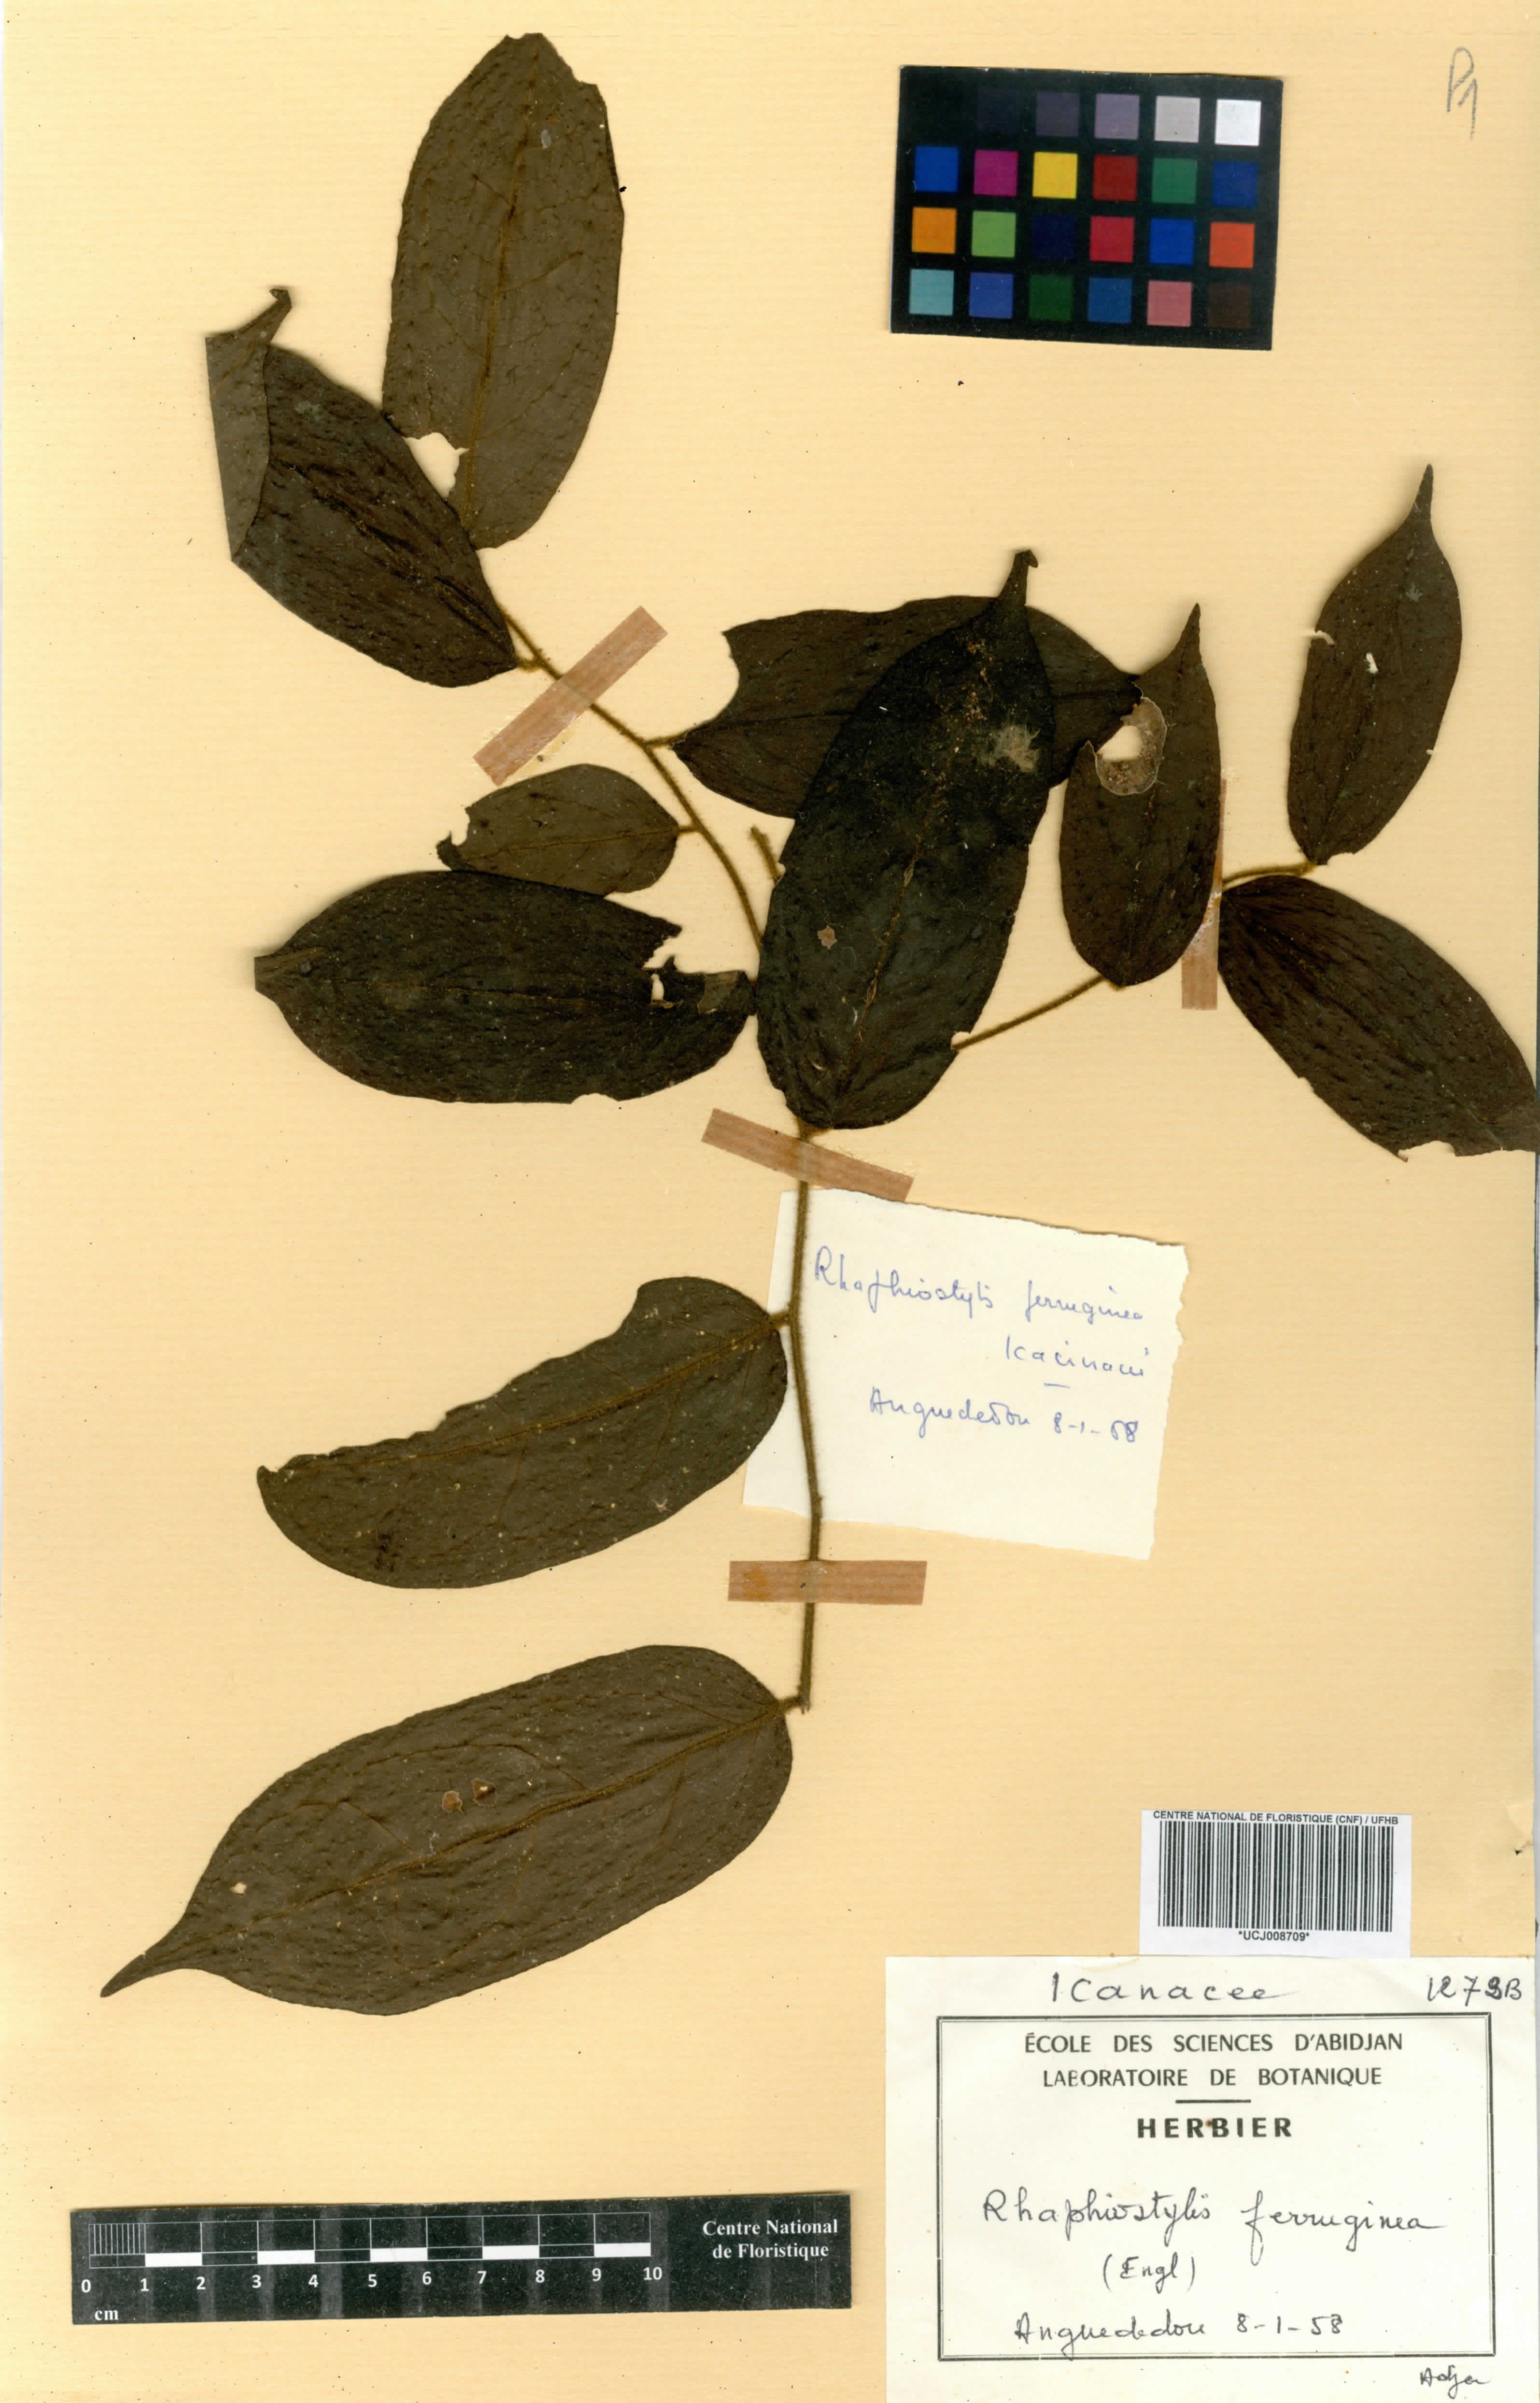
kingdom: Plantae
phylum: Tracheophyta
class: Magnoliopsida
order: Metteniusales
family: Metteniusaceae
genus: Rhaphiostylis
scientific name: Rhaphiostylis ferruginea
